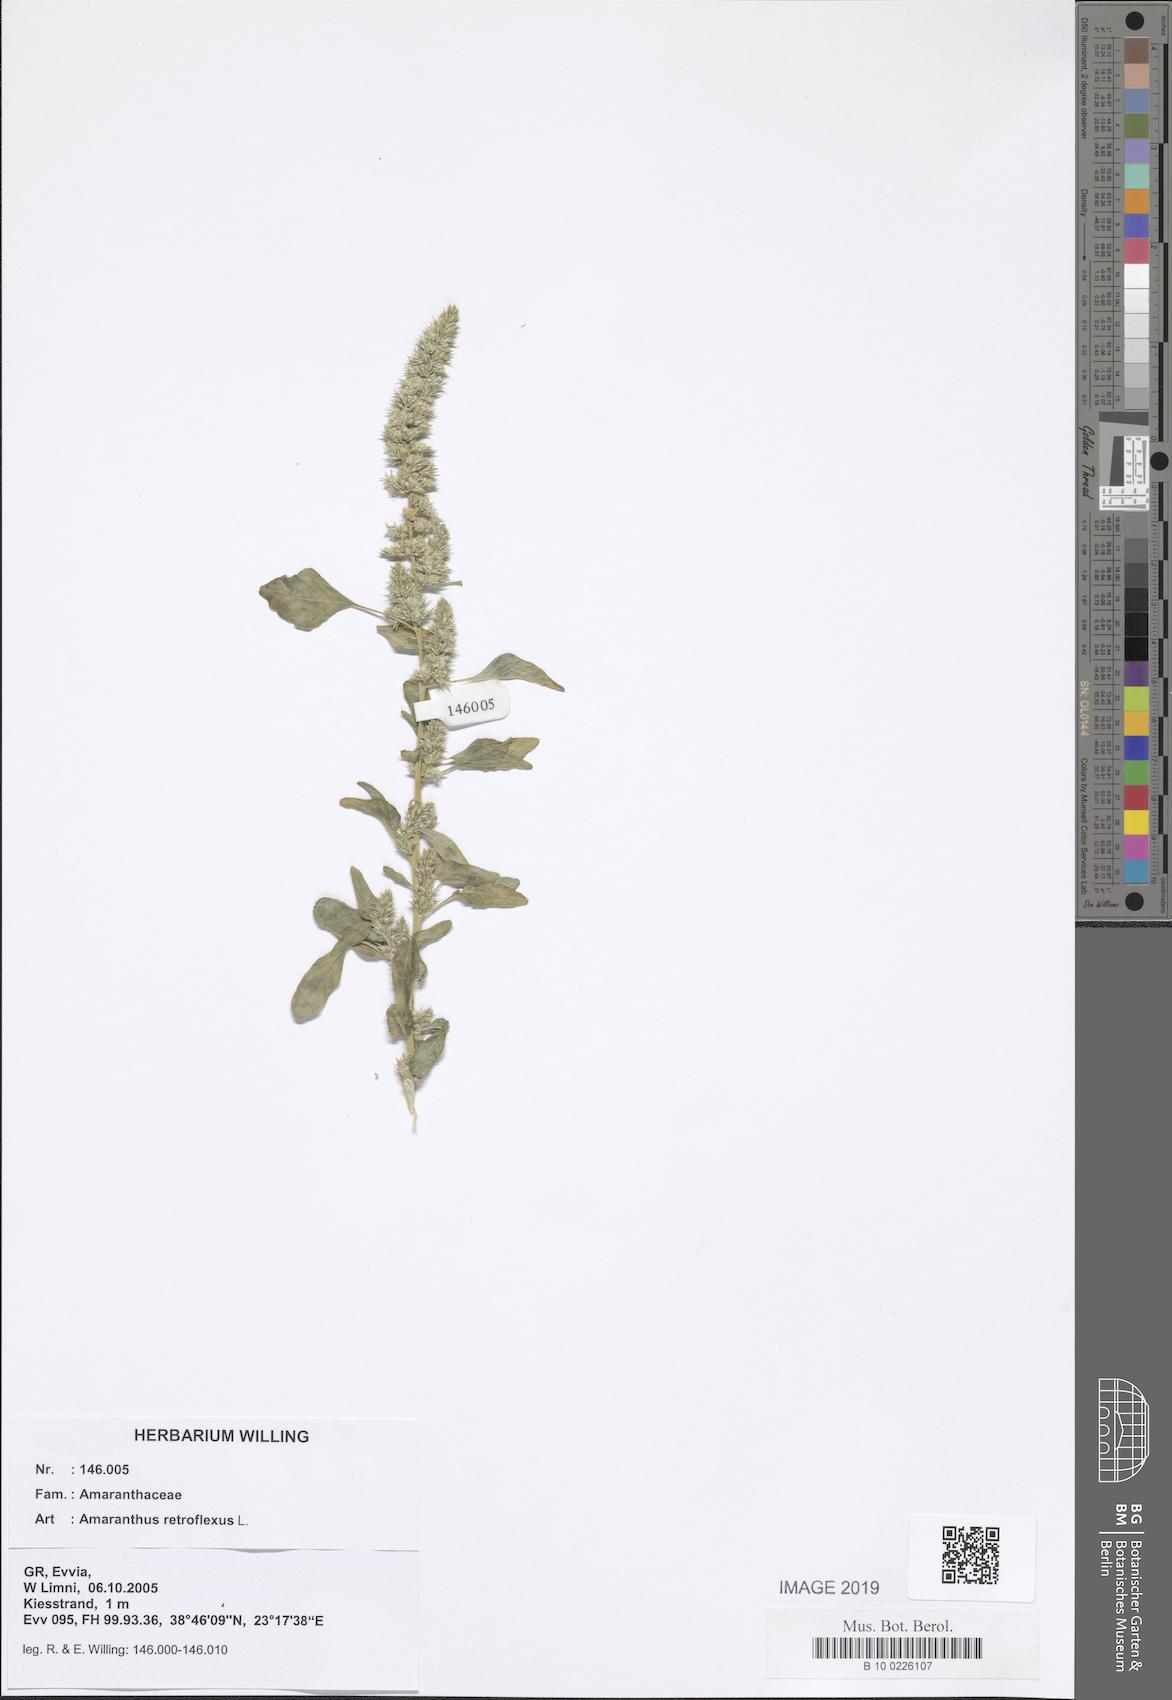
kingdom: Plantae
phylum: Tracheophyta
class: Magnoliopsida
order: Caryophyllales
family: Amaranthaceae
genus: Amaranthus
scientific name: Amaranthus retroflexus
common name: Redroot amaranth
